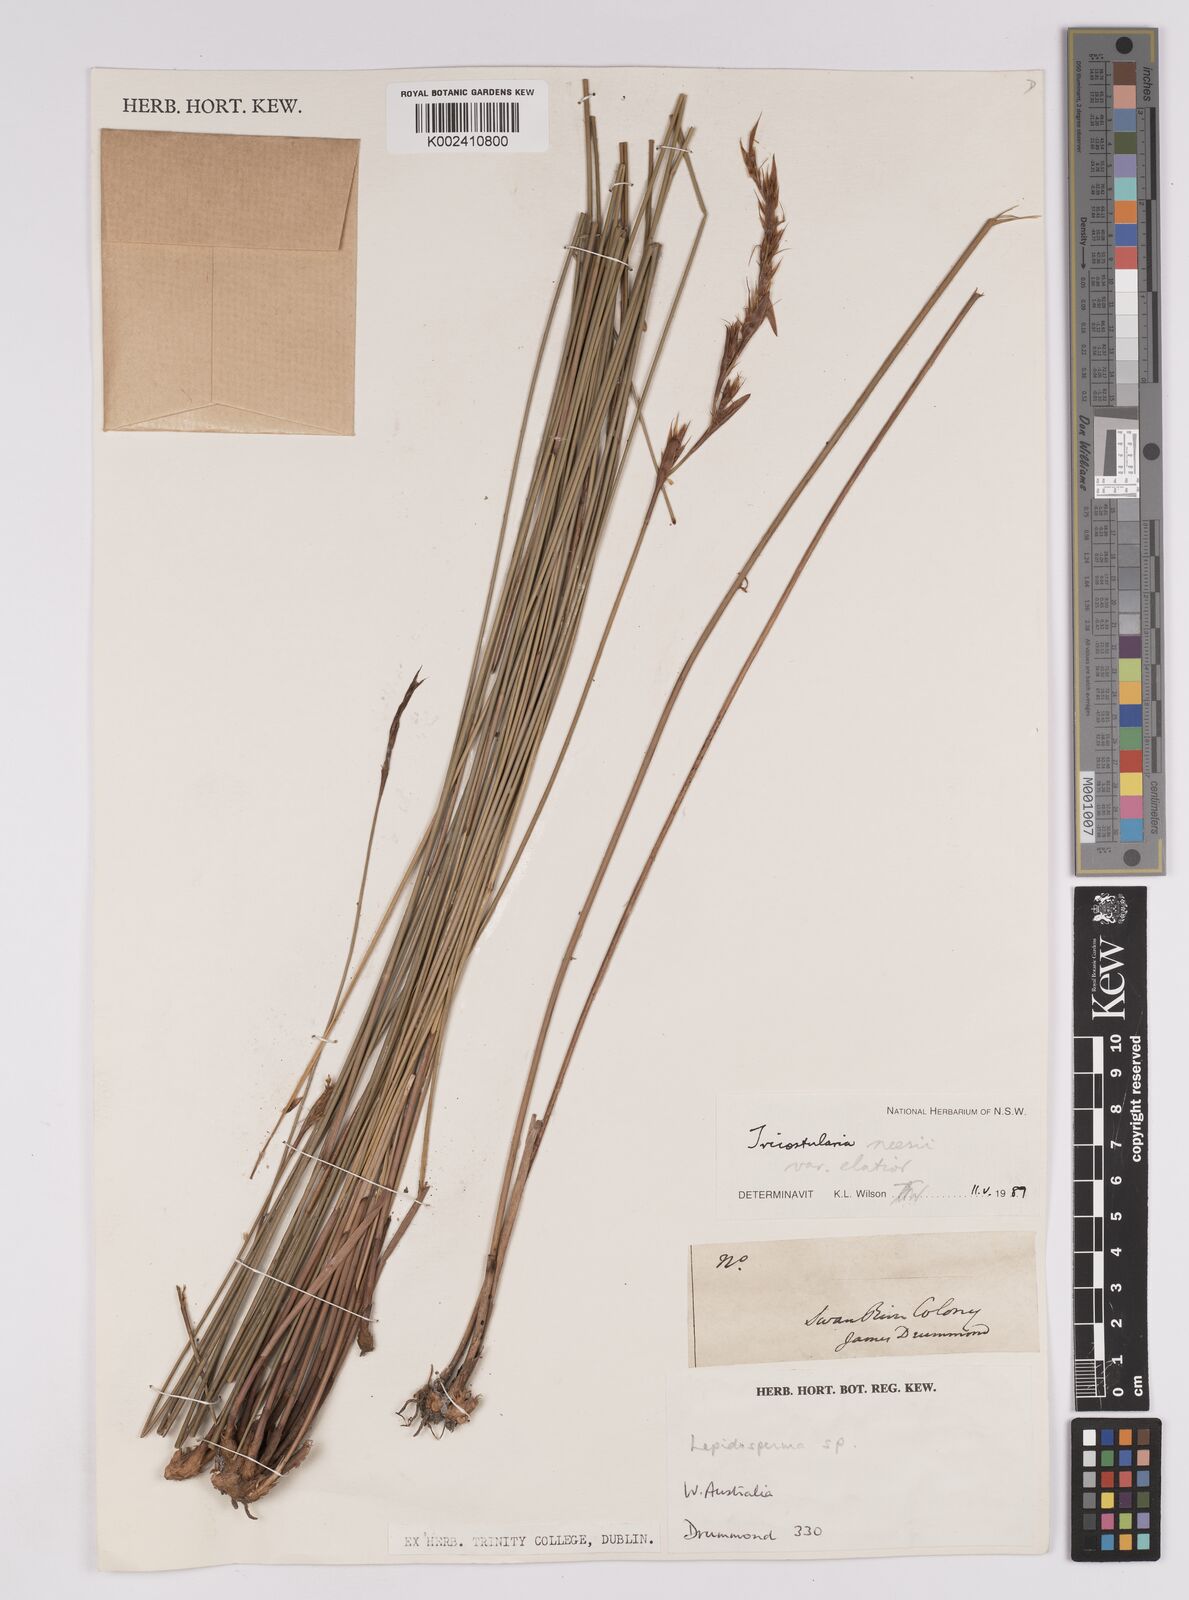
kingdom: Plantae
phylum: Tracheophyta
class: Liliopsida
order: Poales
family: Cyperaceae
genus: Tricostularia
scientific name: Tricostularia neesii
